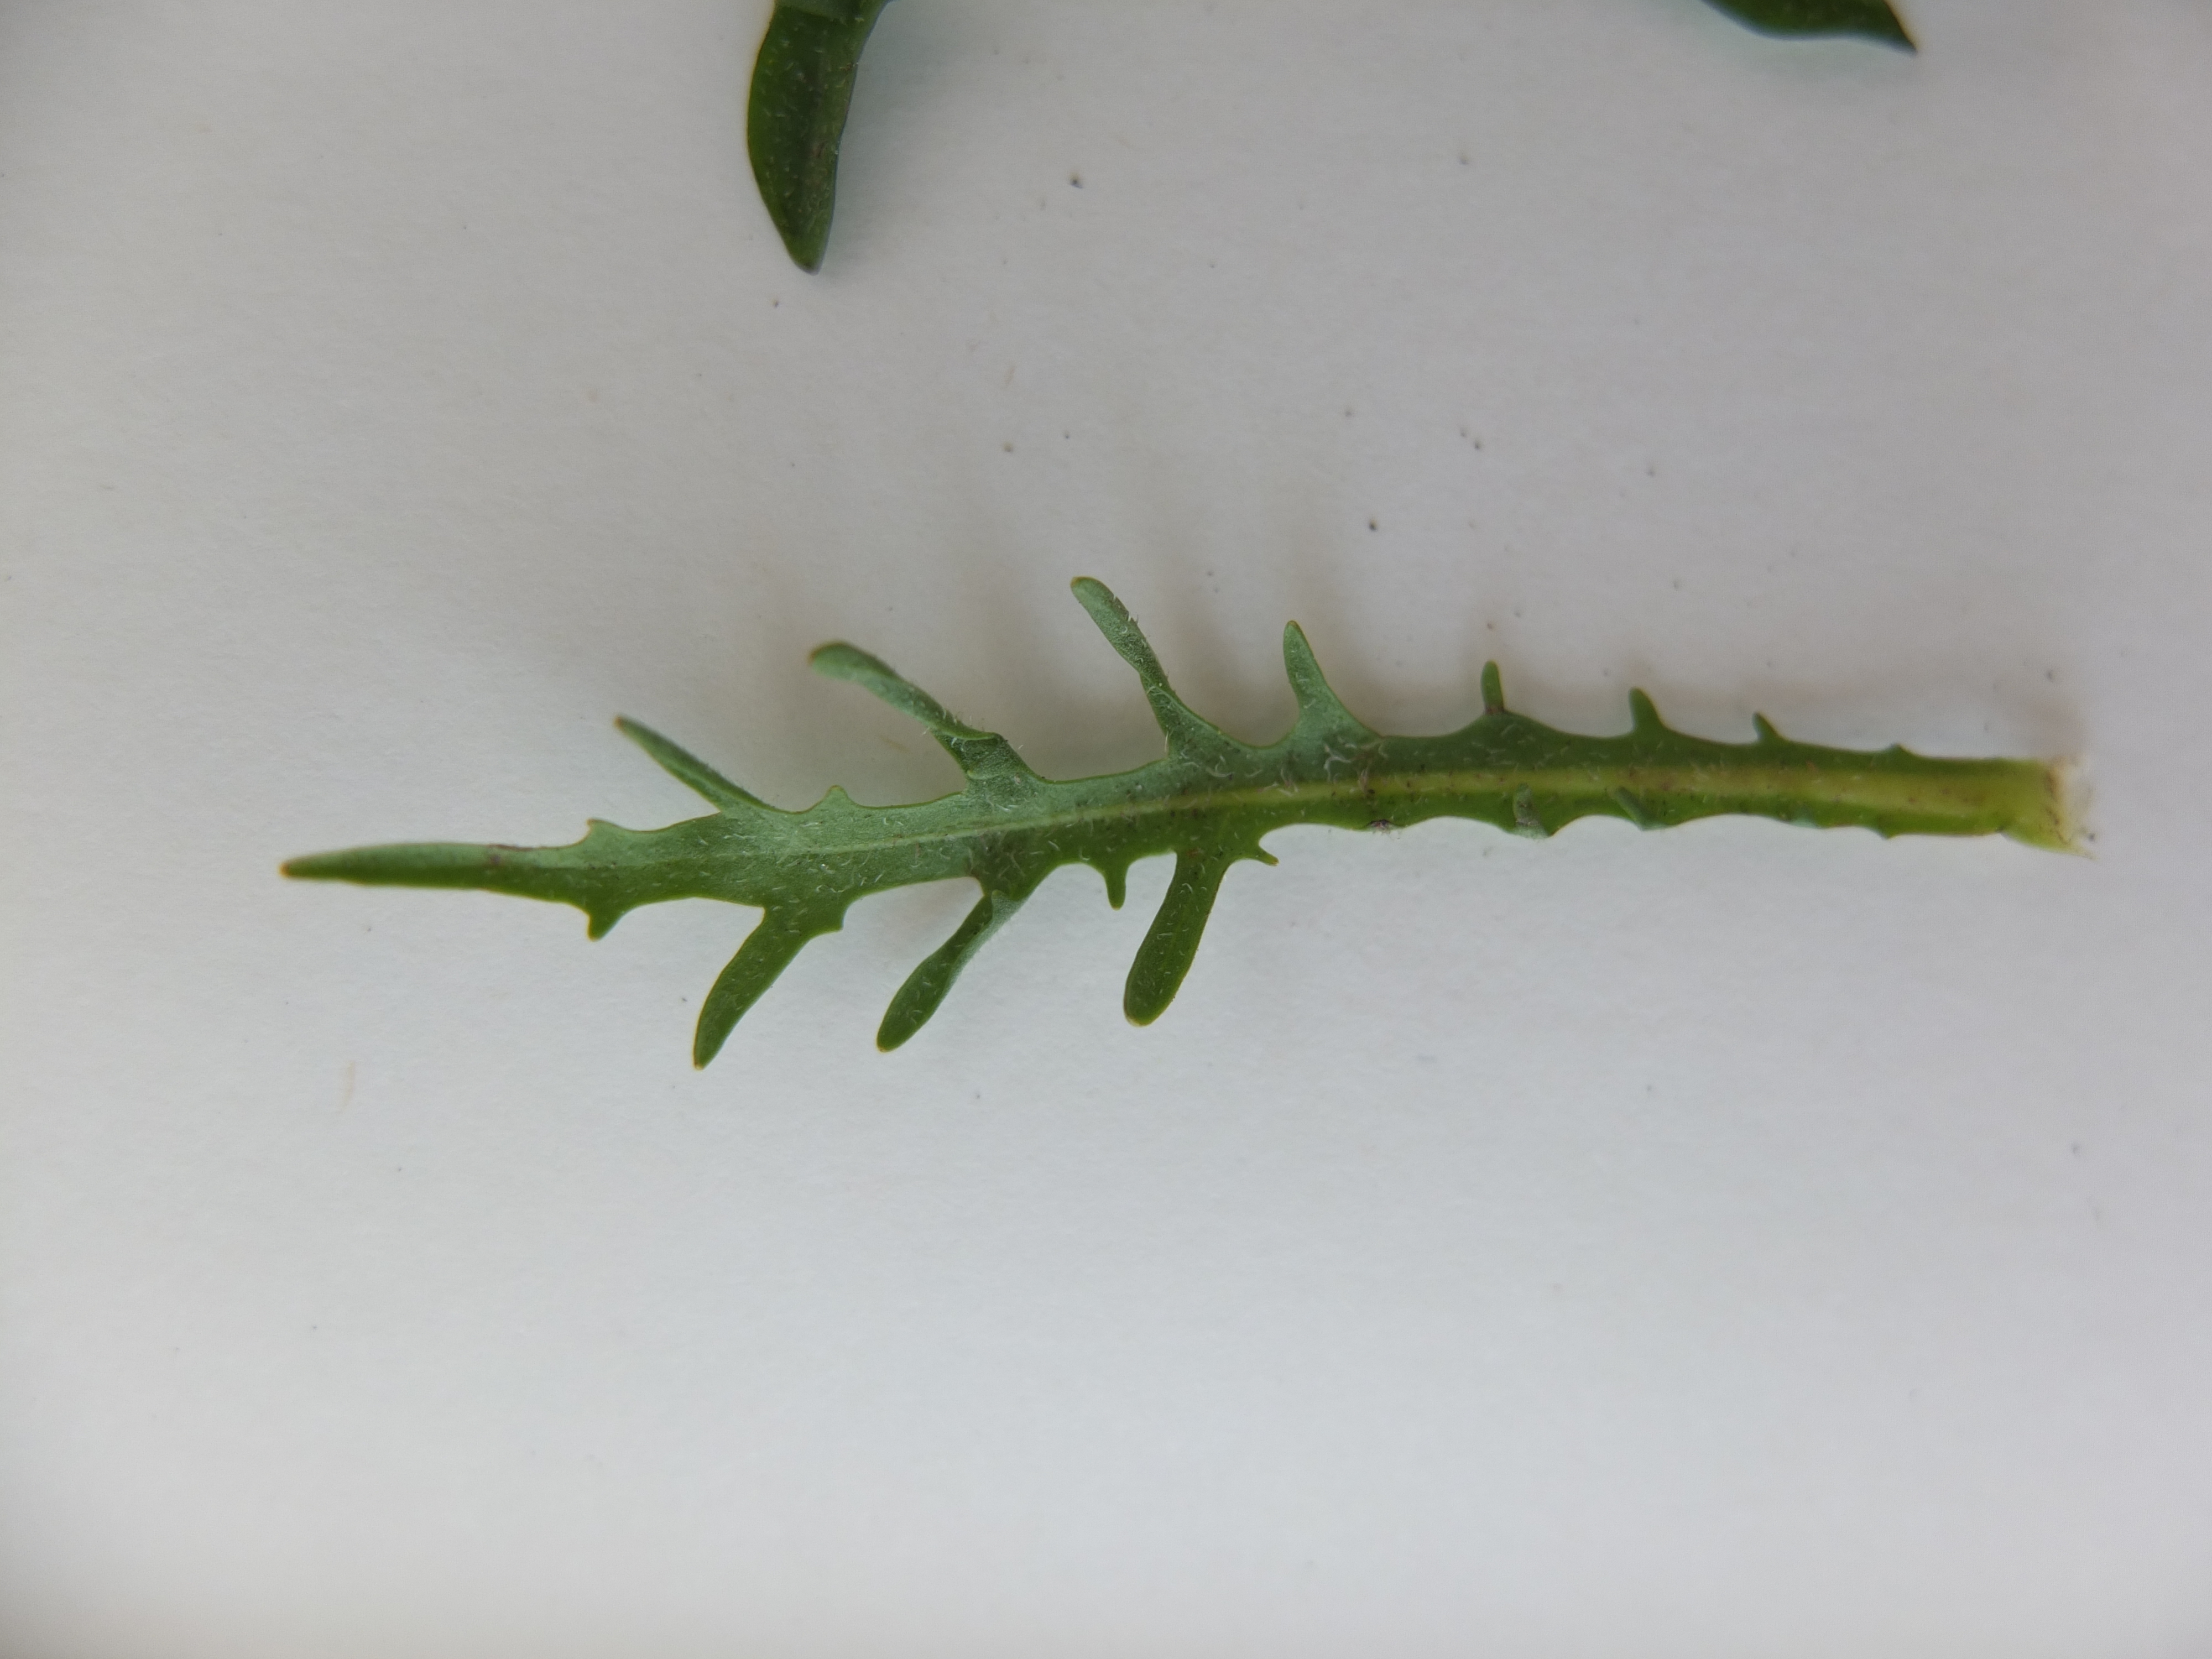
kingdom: Plantae
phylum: Tracheophyta
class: Magnoliopsida
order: Asterales
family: Asteraceae
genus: Scorzoneroides
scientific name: Scorzoneroides autumnalis
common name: Høst-borst
